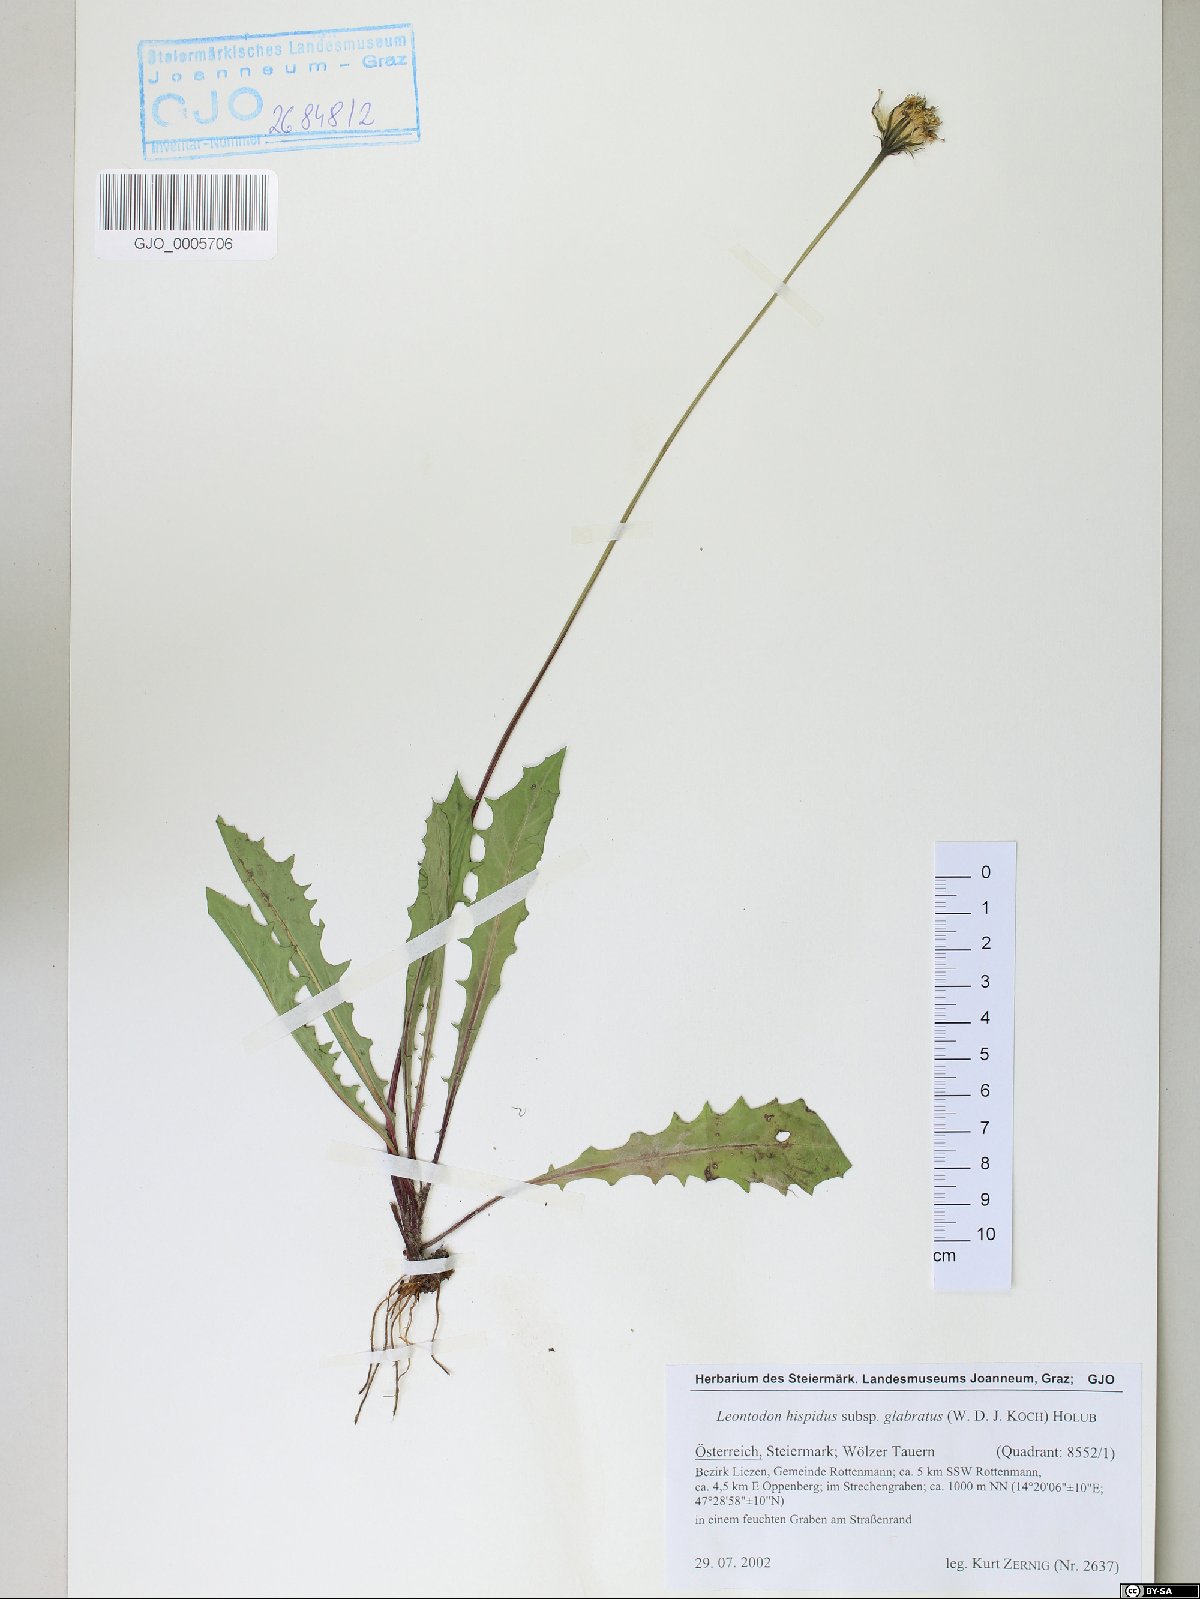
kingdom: Plantae
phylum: Tracheophyta
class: Magnoliopsida
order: Asterales
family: Asteraceae
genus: Leontodon
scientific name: Leontodon hispidus
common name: Rough hawkbit
